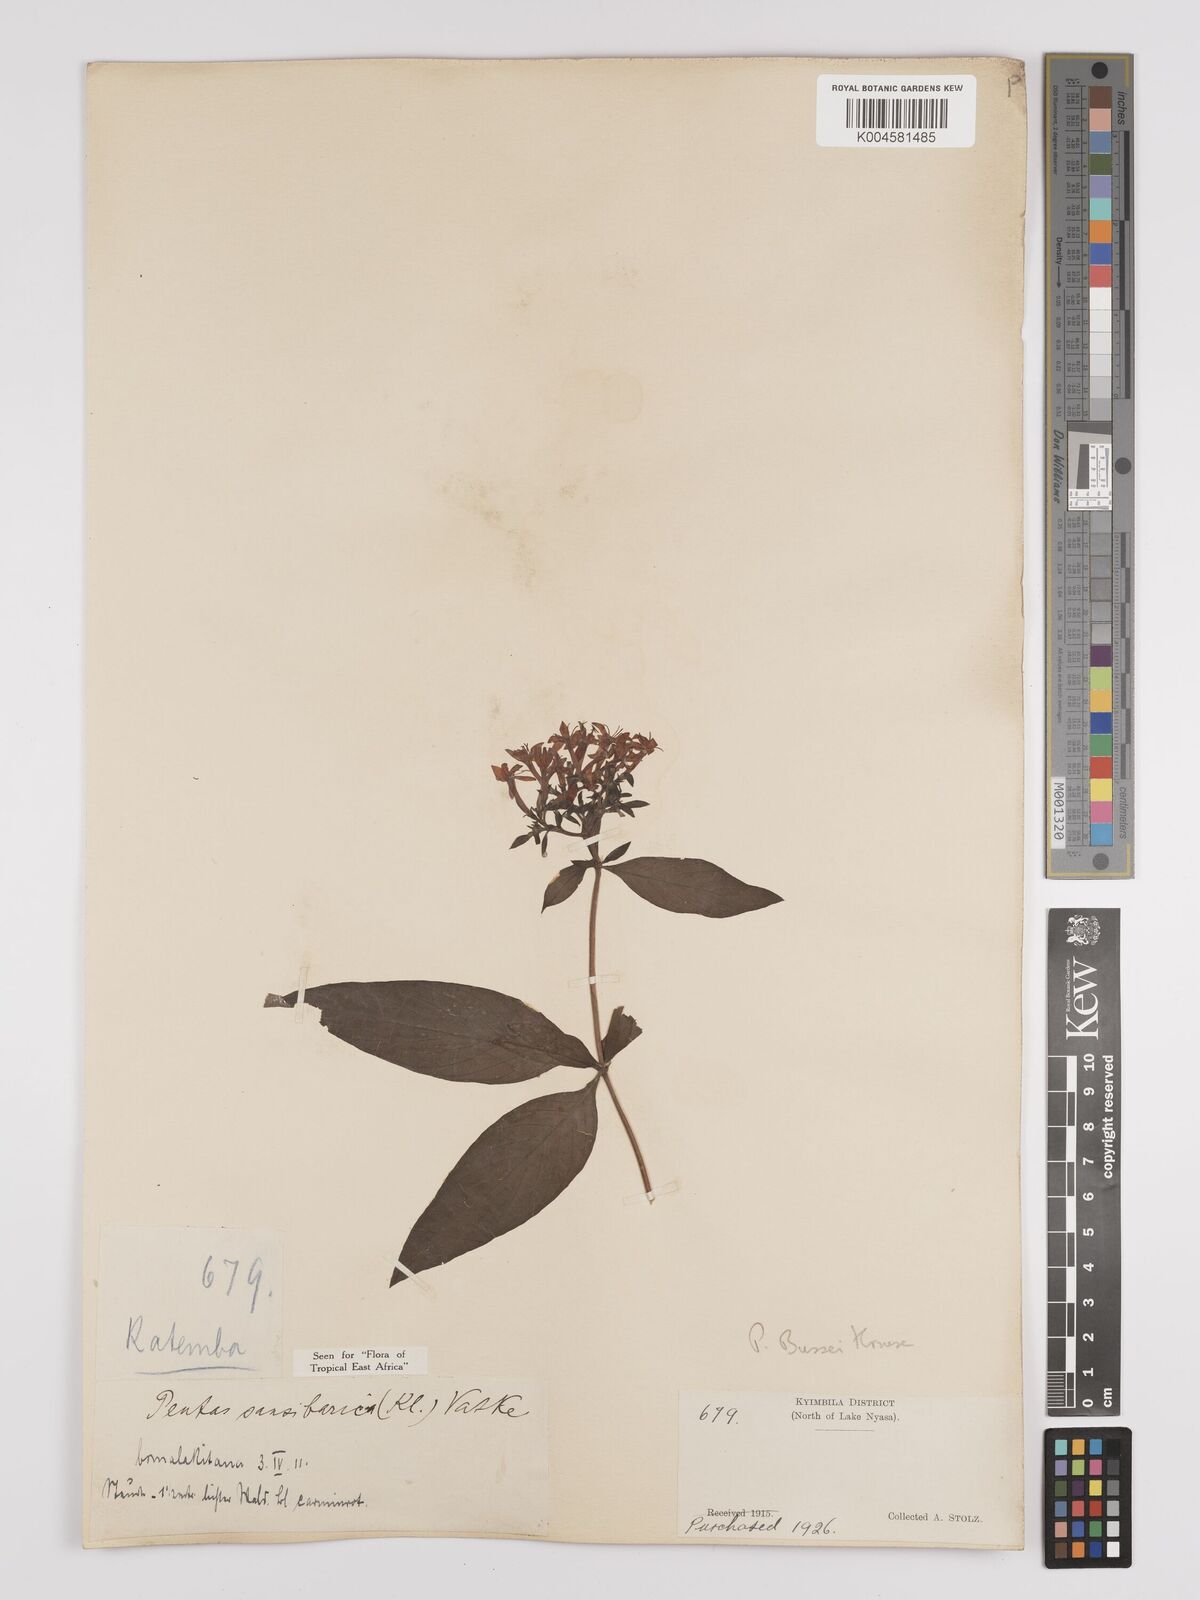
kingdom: Plantae
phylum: Tracheophyta
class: Magnoliopsida
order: Gentianales
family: Rubiaceae
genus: Rhodopentas
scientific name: Rhodopentas bussei
